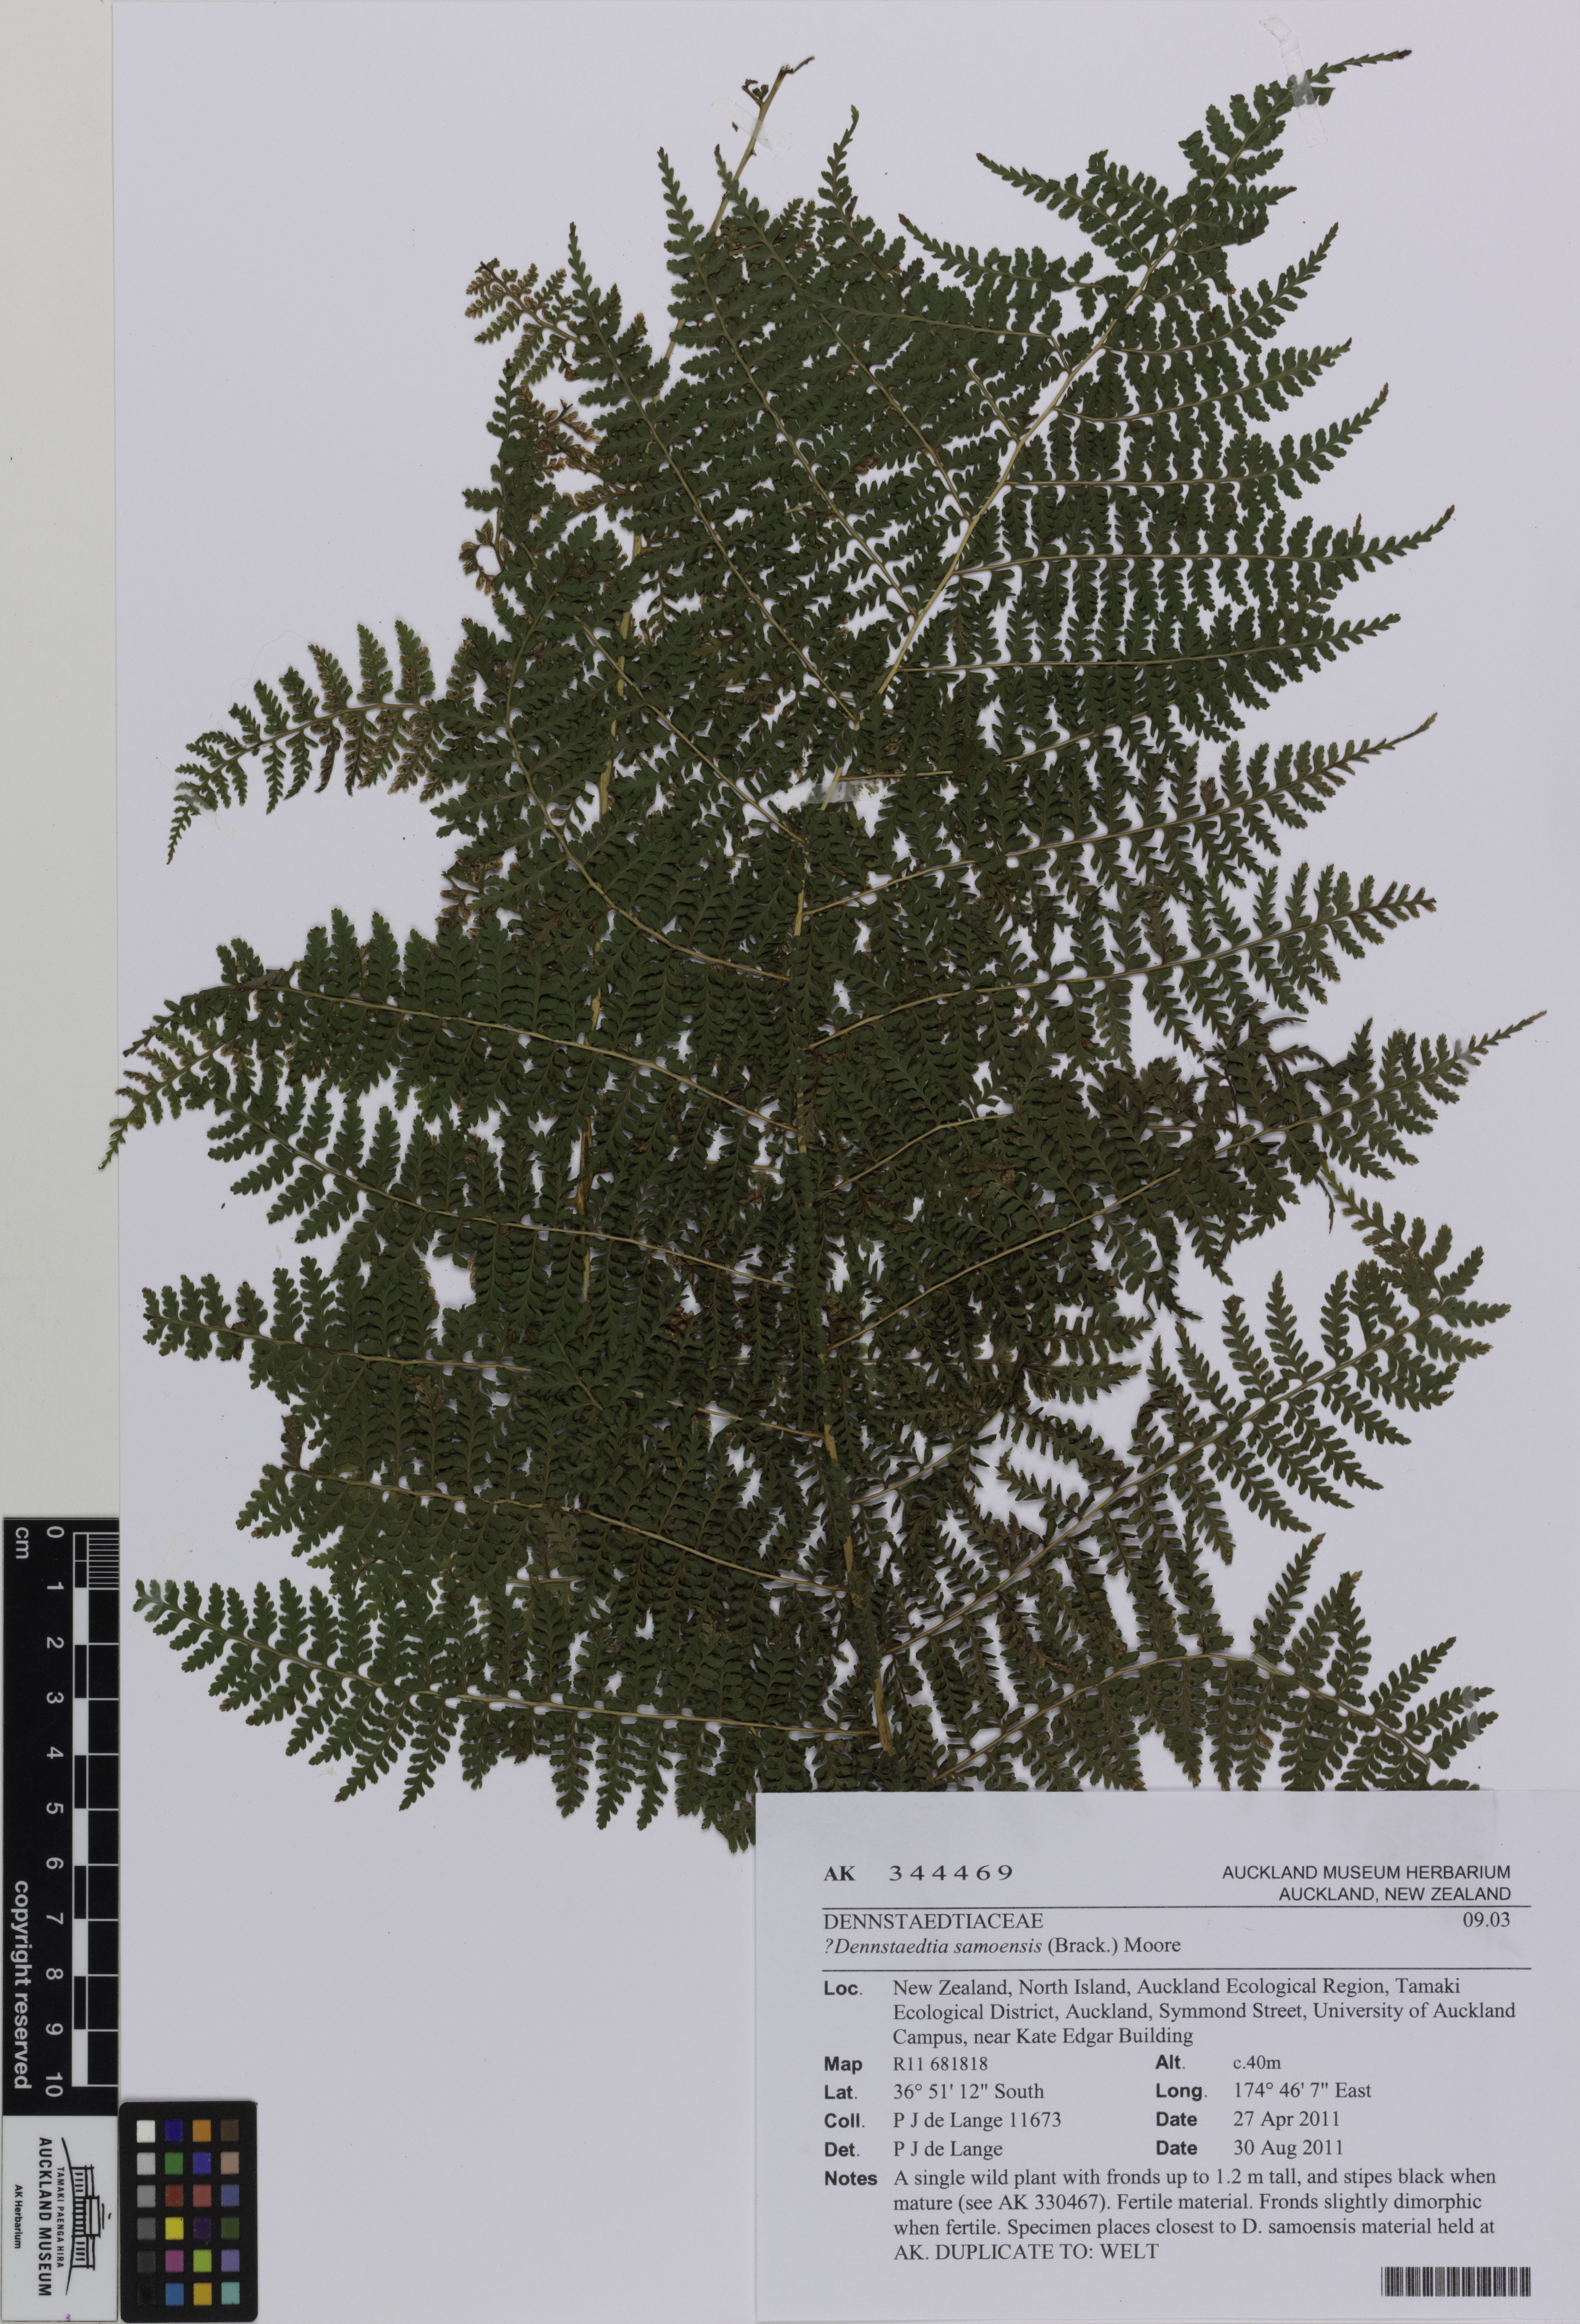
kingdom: Plantae
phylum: Tracheophyta
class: Polypodiopsida
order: Polypodiales
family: Dennstaedtiaceae
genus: Dennstaedtia
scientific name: Dennstaedtia davallioides
